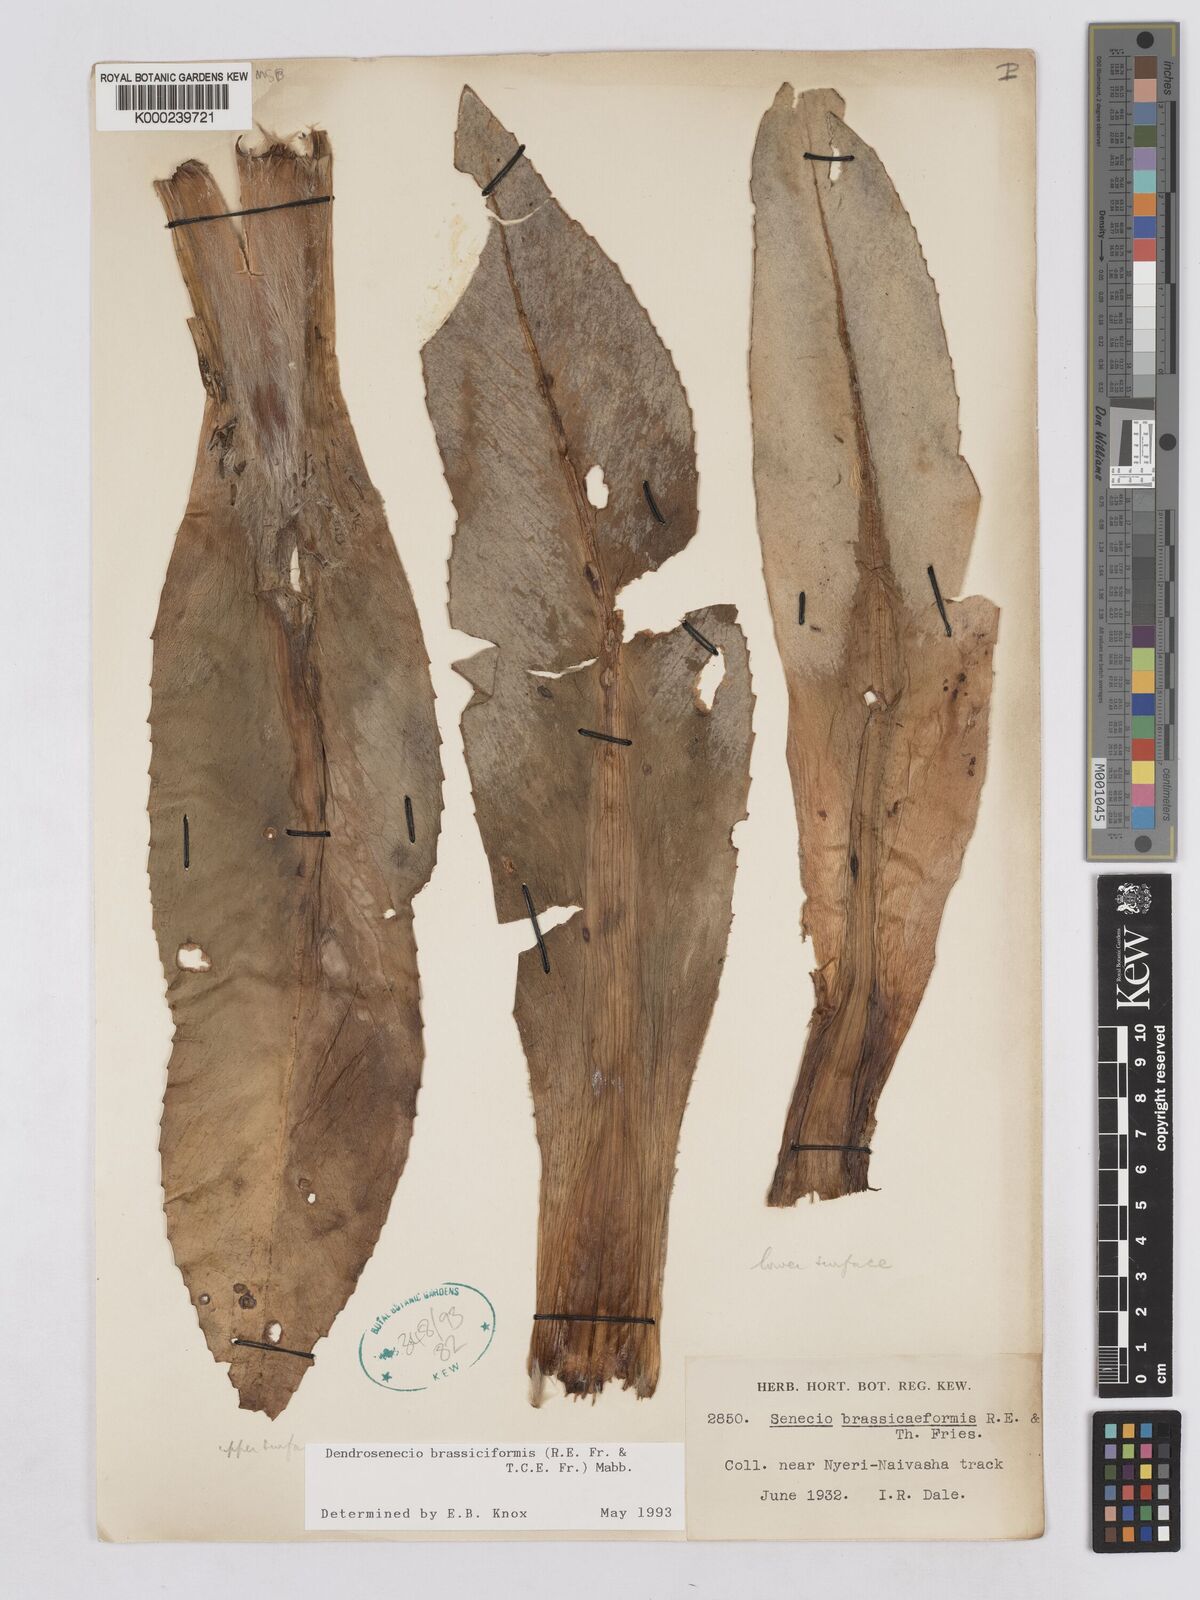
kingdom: Plantae
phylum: Tracheophyta
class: Magnoliopsida
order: Asterales
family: Asteraceae
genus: Dendrosenecio
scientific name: Dendrosenecio brassiciformis
